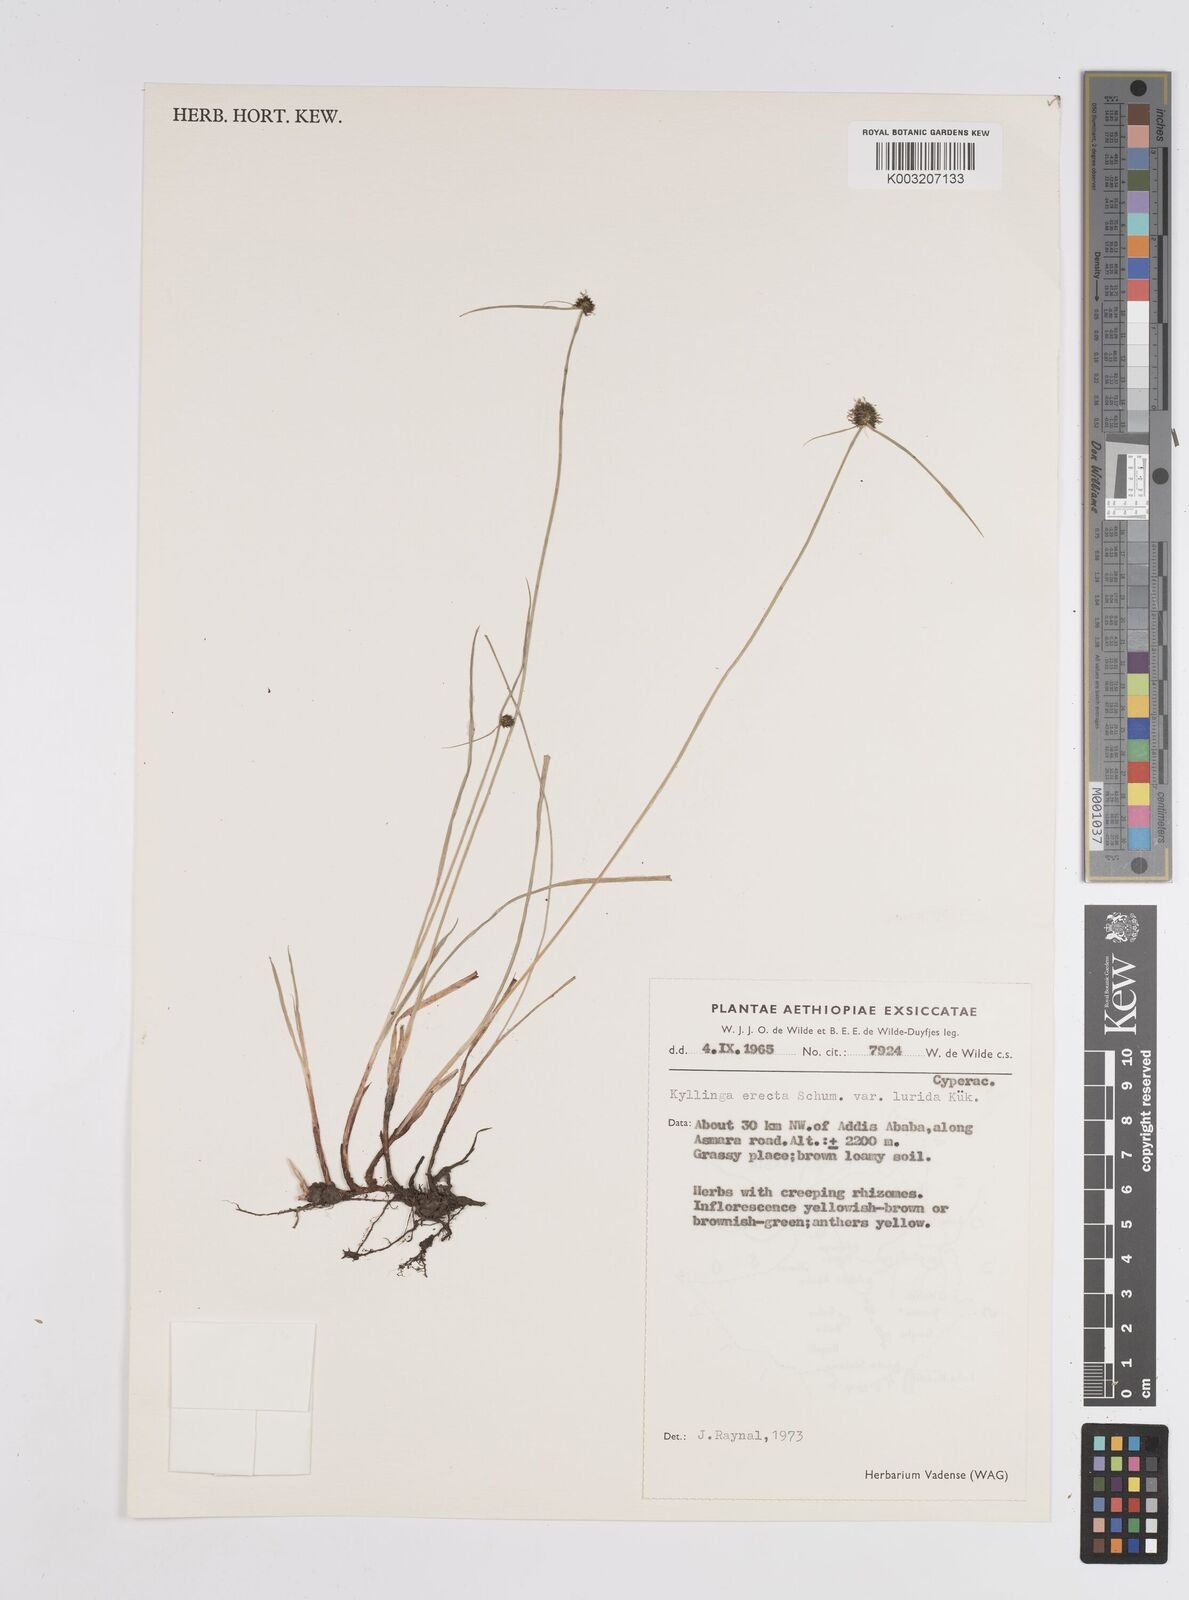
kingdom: Plantae
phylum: Tracheophyta
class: Liliopsida
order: Poales
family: Cyperaceae
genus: Cyperus
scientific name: Cyperus
